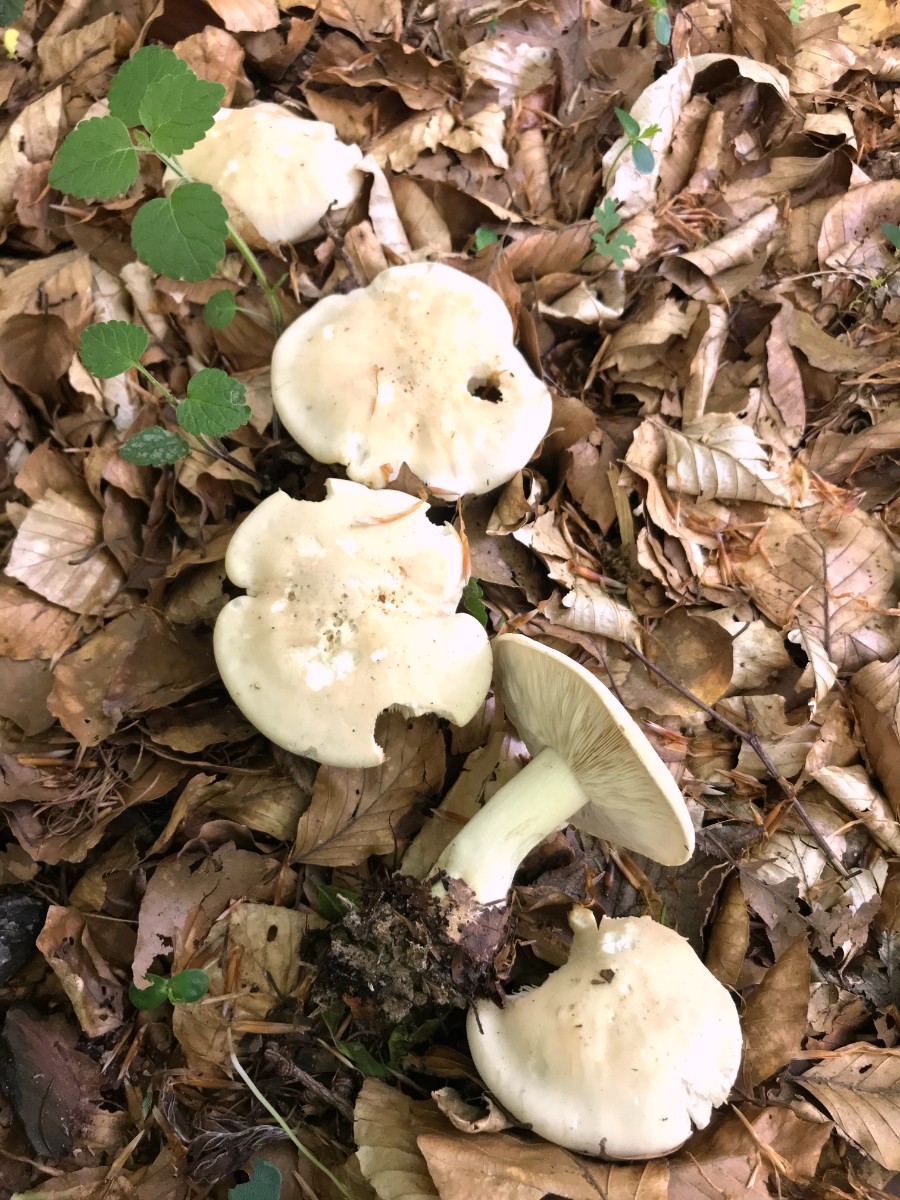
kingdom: Fungi
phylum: Basidiomycota
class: Agaricomycetes
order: Agaricales
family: Lyophyllaceae
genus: Calocybe
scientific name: Calocybe gambosa
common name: vårmusseron
